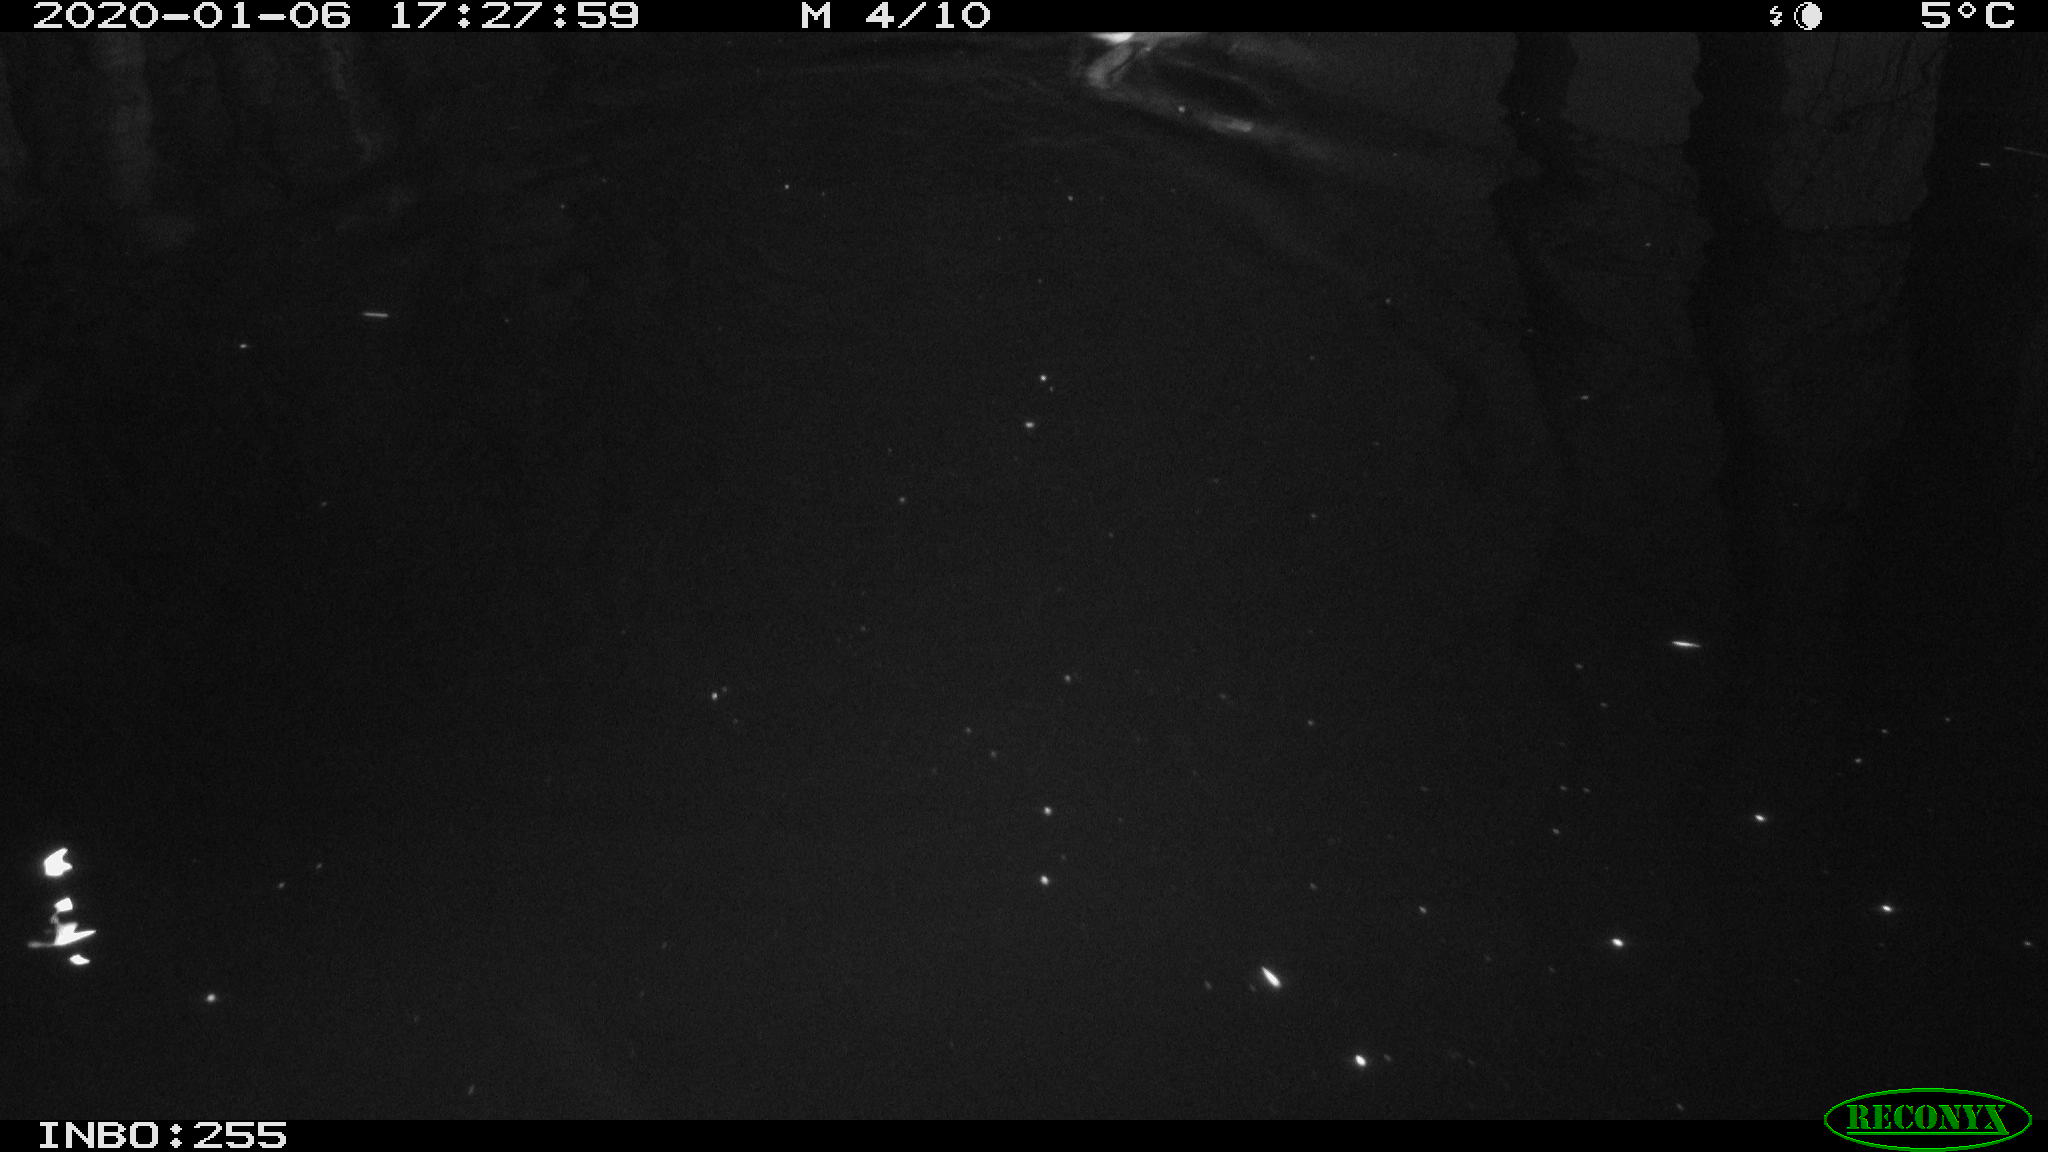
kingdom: Animalia
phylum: Chordata
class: Aves
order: Gruiformes
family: Rallidae
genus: Gallinula
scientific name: Gallinula chloropus
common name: Common moorhen
